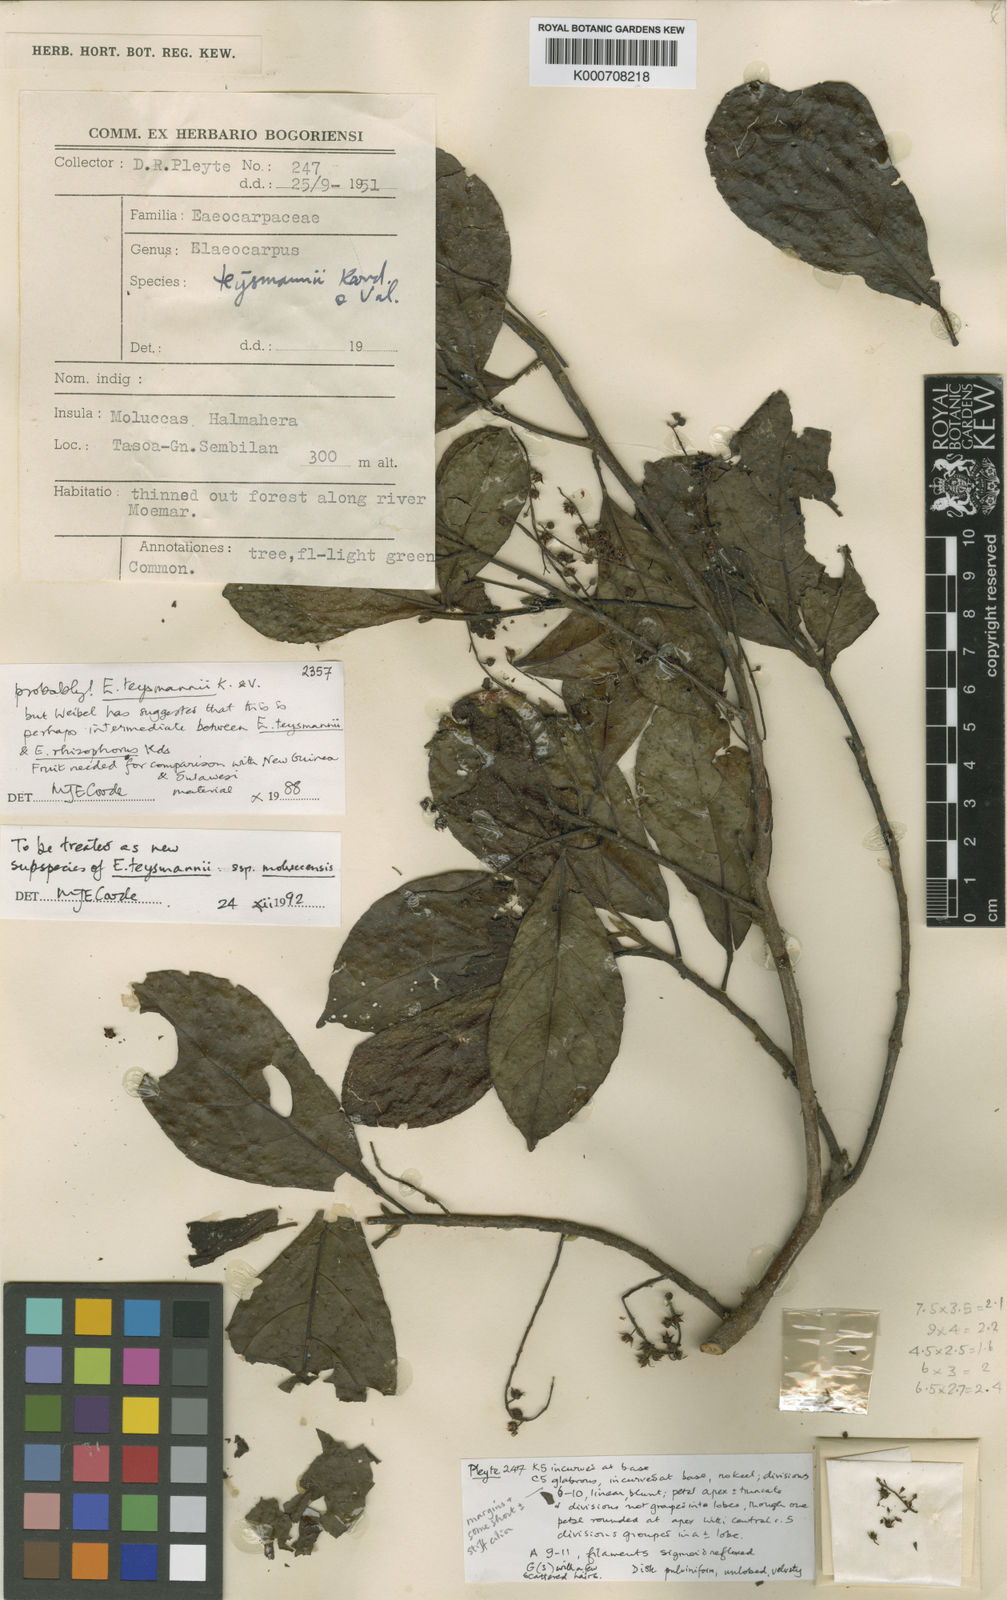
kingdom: Plantae
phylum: Tracheophyta
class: Magnoliopsida
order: Oxalidales
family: Elaeocarpaceae
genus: Elaeocarpus
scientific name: Elaeocarpus teysmannii
